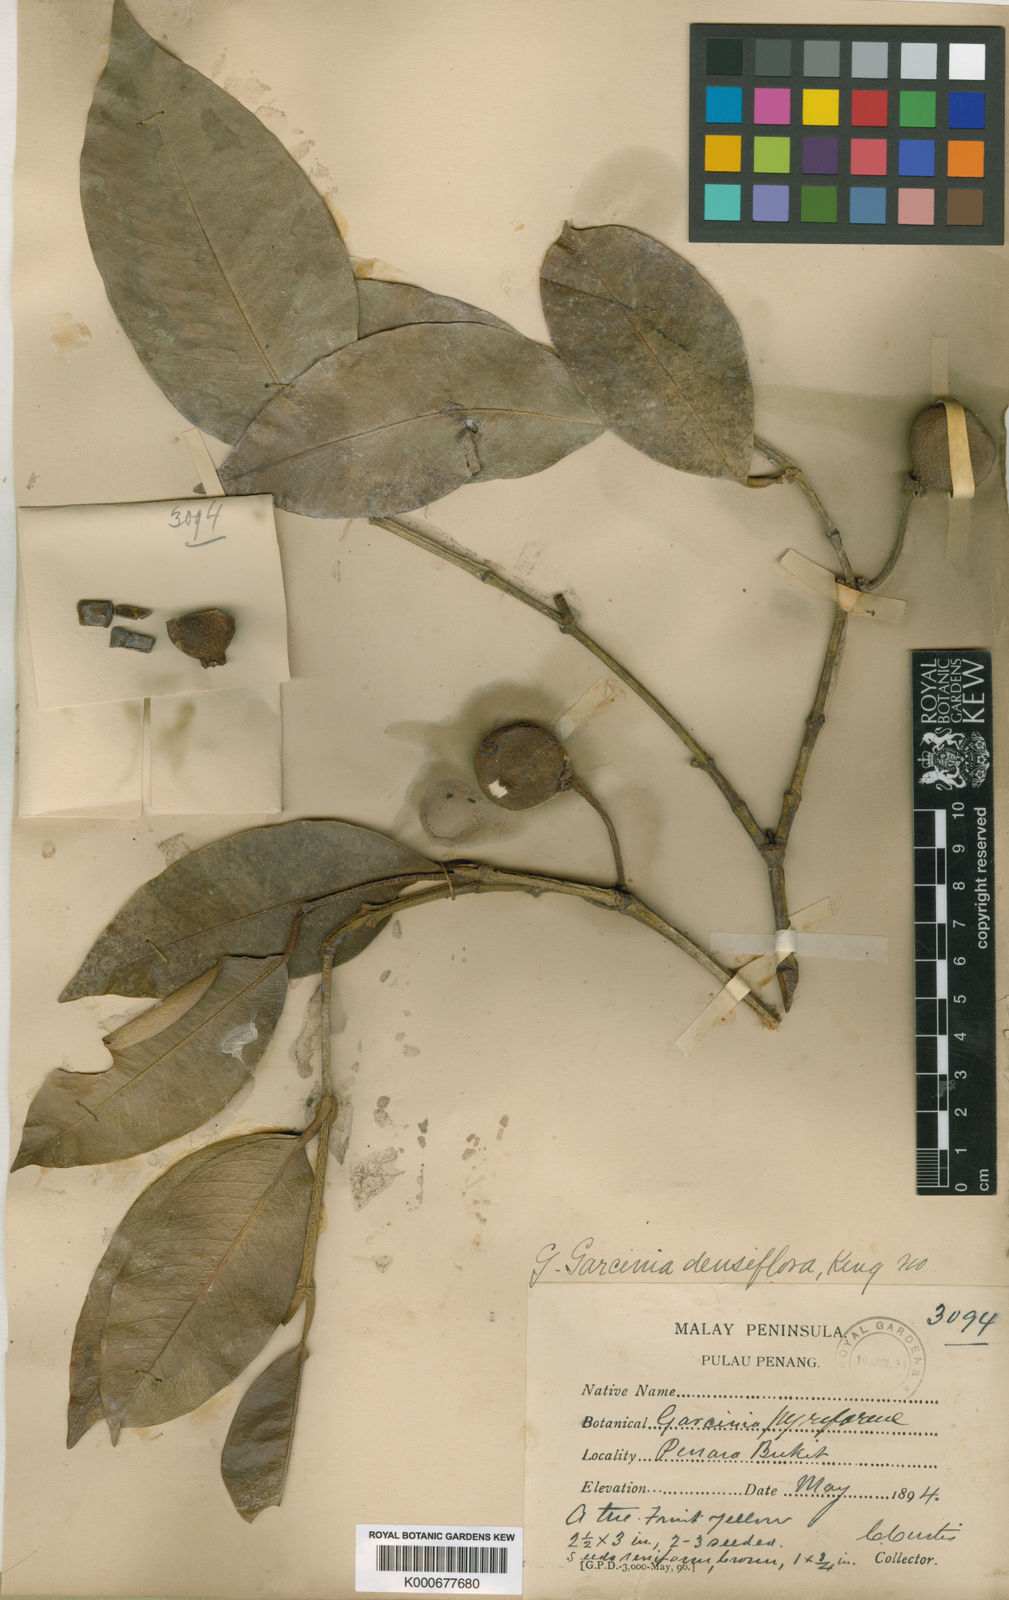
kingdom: Plantae
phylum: Tracheophyta
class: Magnoliopsida
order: Malpighiales
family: Clusiaceae
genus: Garcinia
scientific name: Garcinia pyrifera
